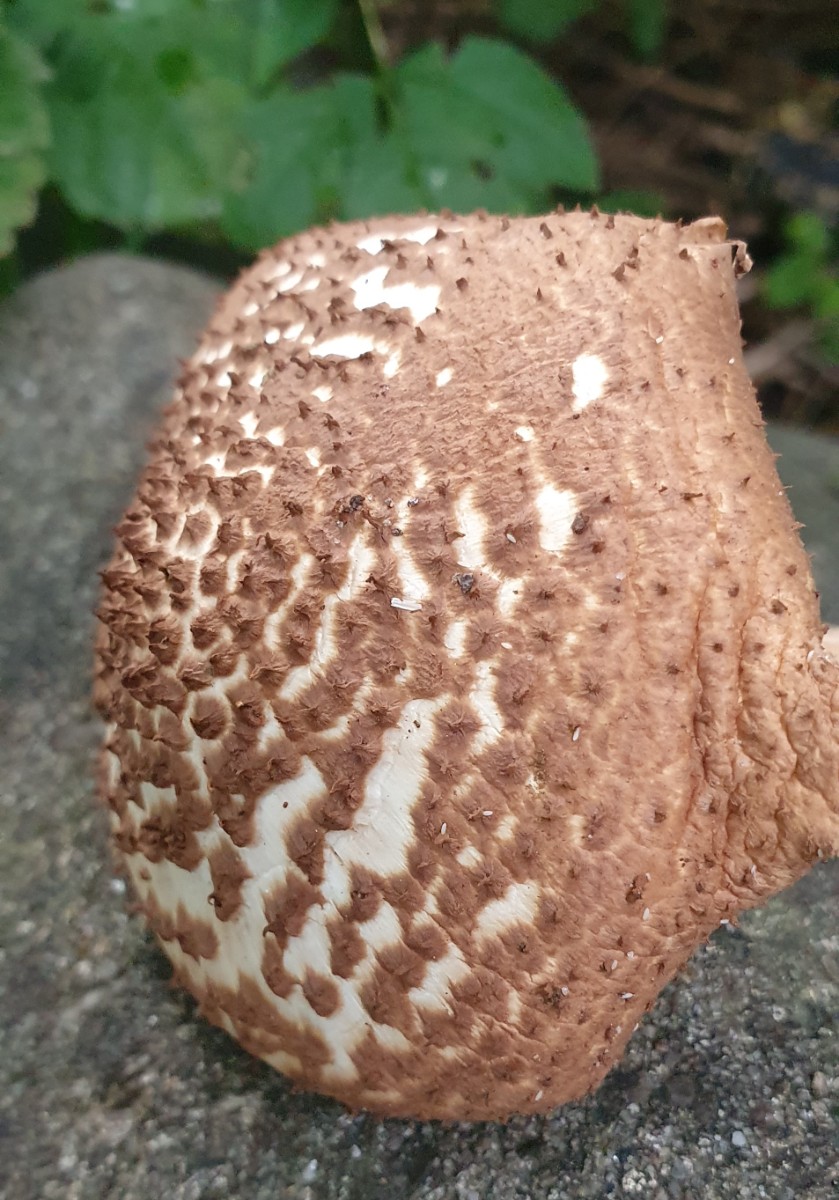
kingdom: Fungi
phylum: Basidiomycota
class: Agaricomycetes
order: Agaricales
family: Agaricaceae
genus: Echinoderma
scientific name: Echinoderma asperum
